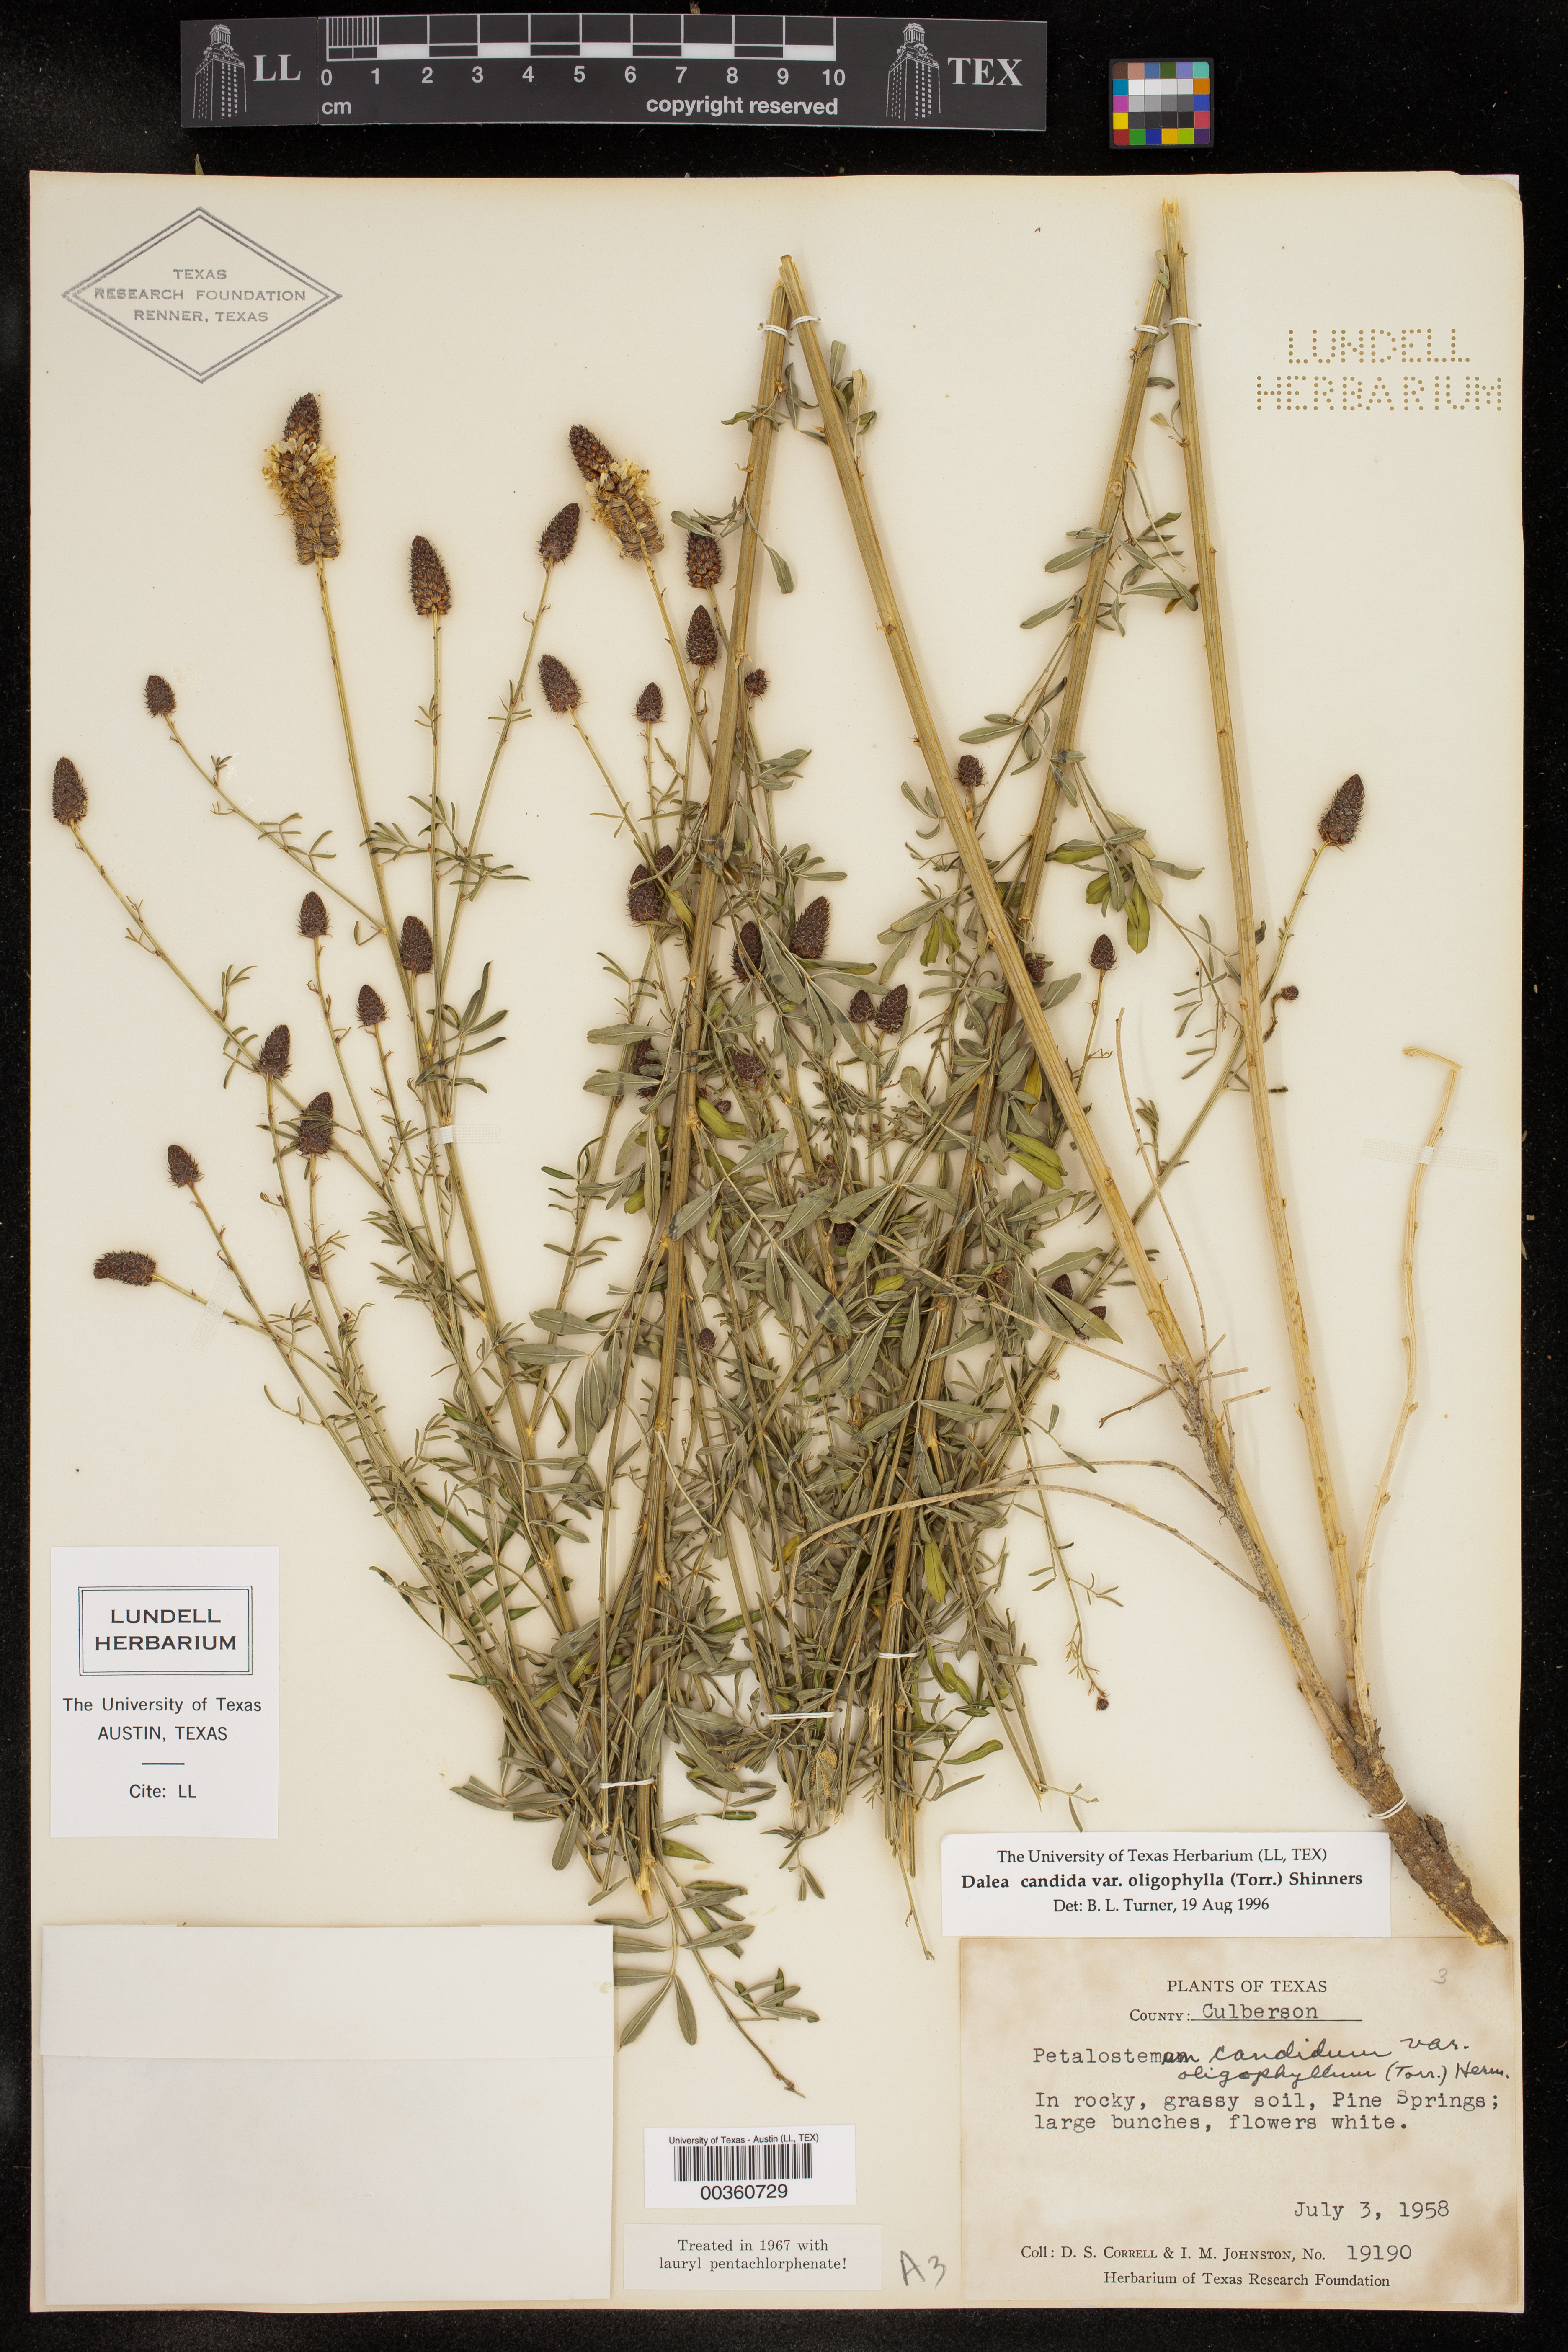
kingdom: Plantae
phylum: Tracheophyta
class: Magnoliopsida
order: Fabales
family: Fabaceae
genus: Dalea
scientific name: Dalea candida
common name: White prairie-clover
